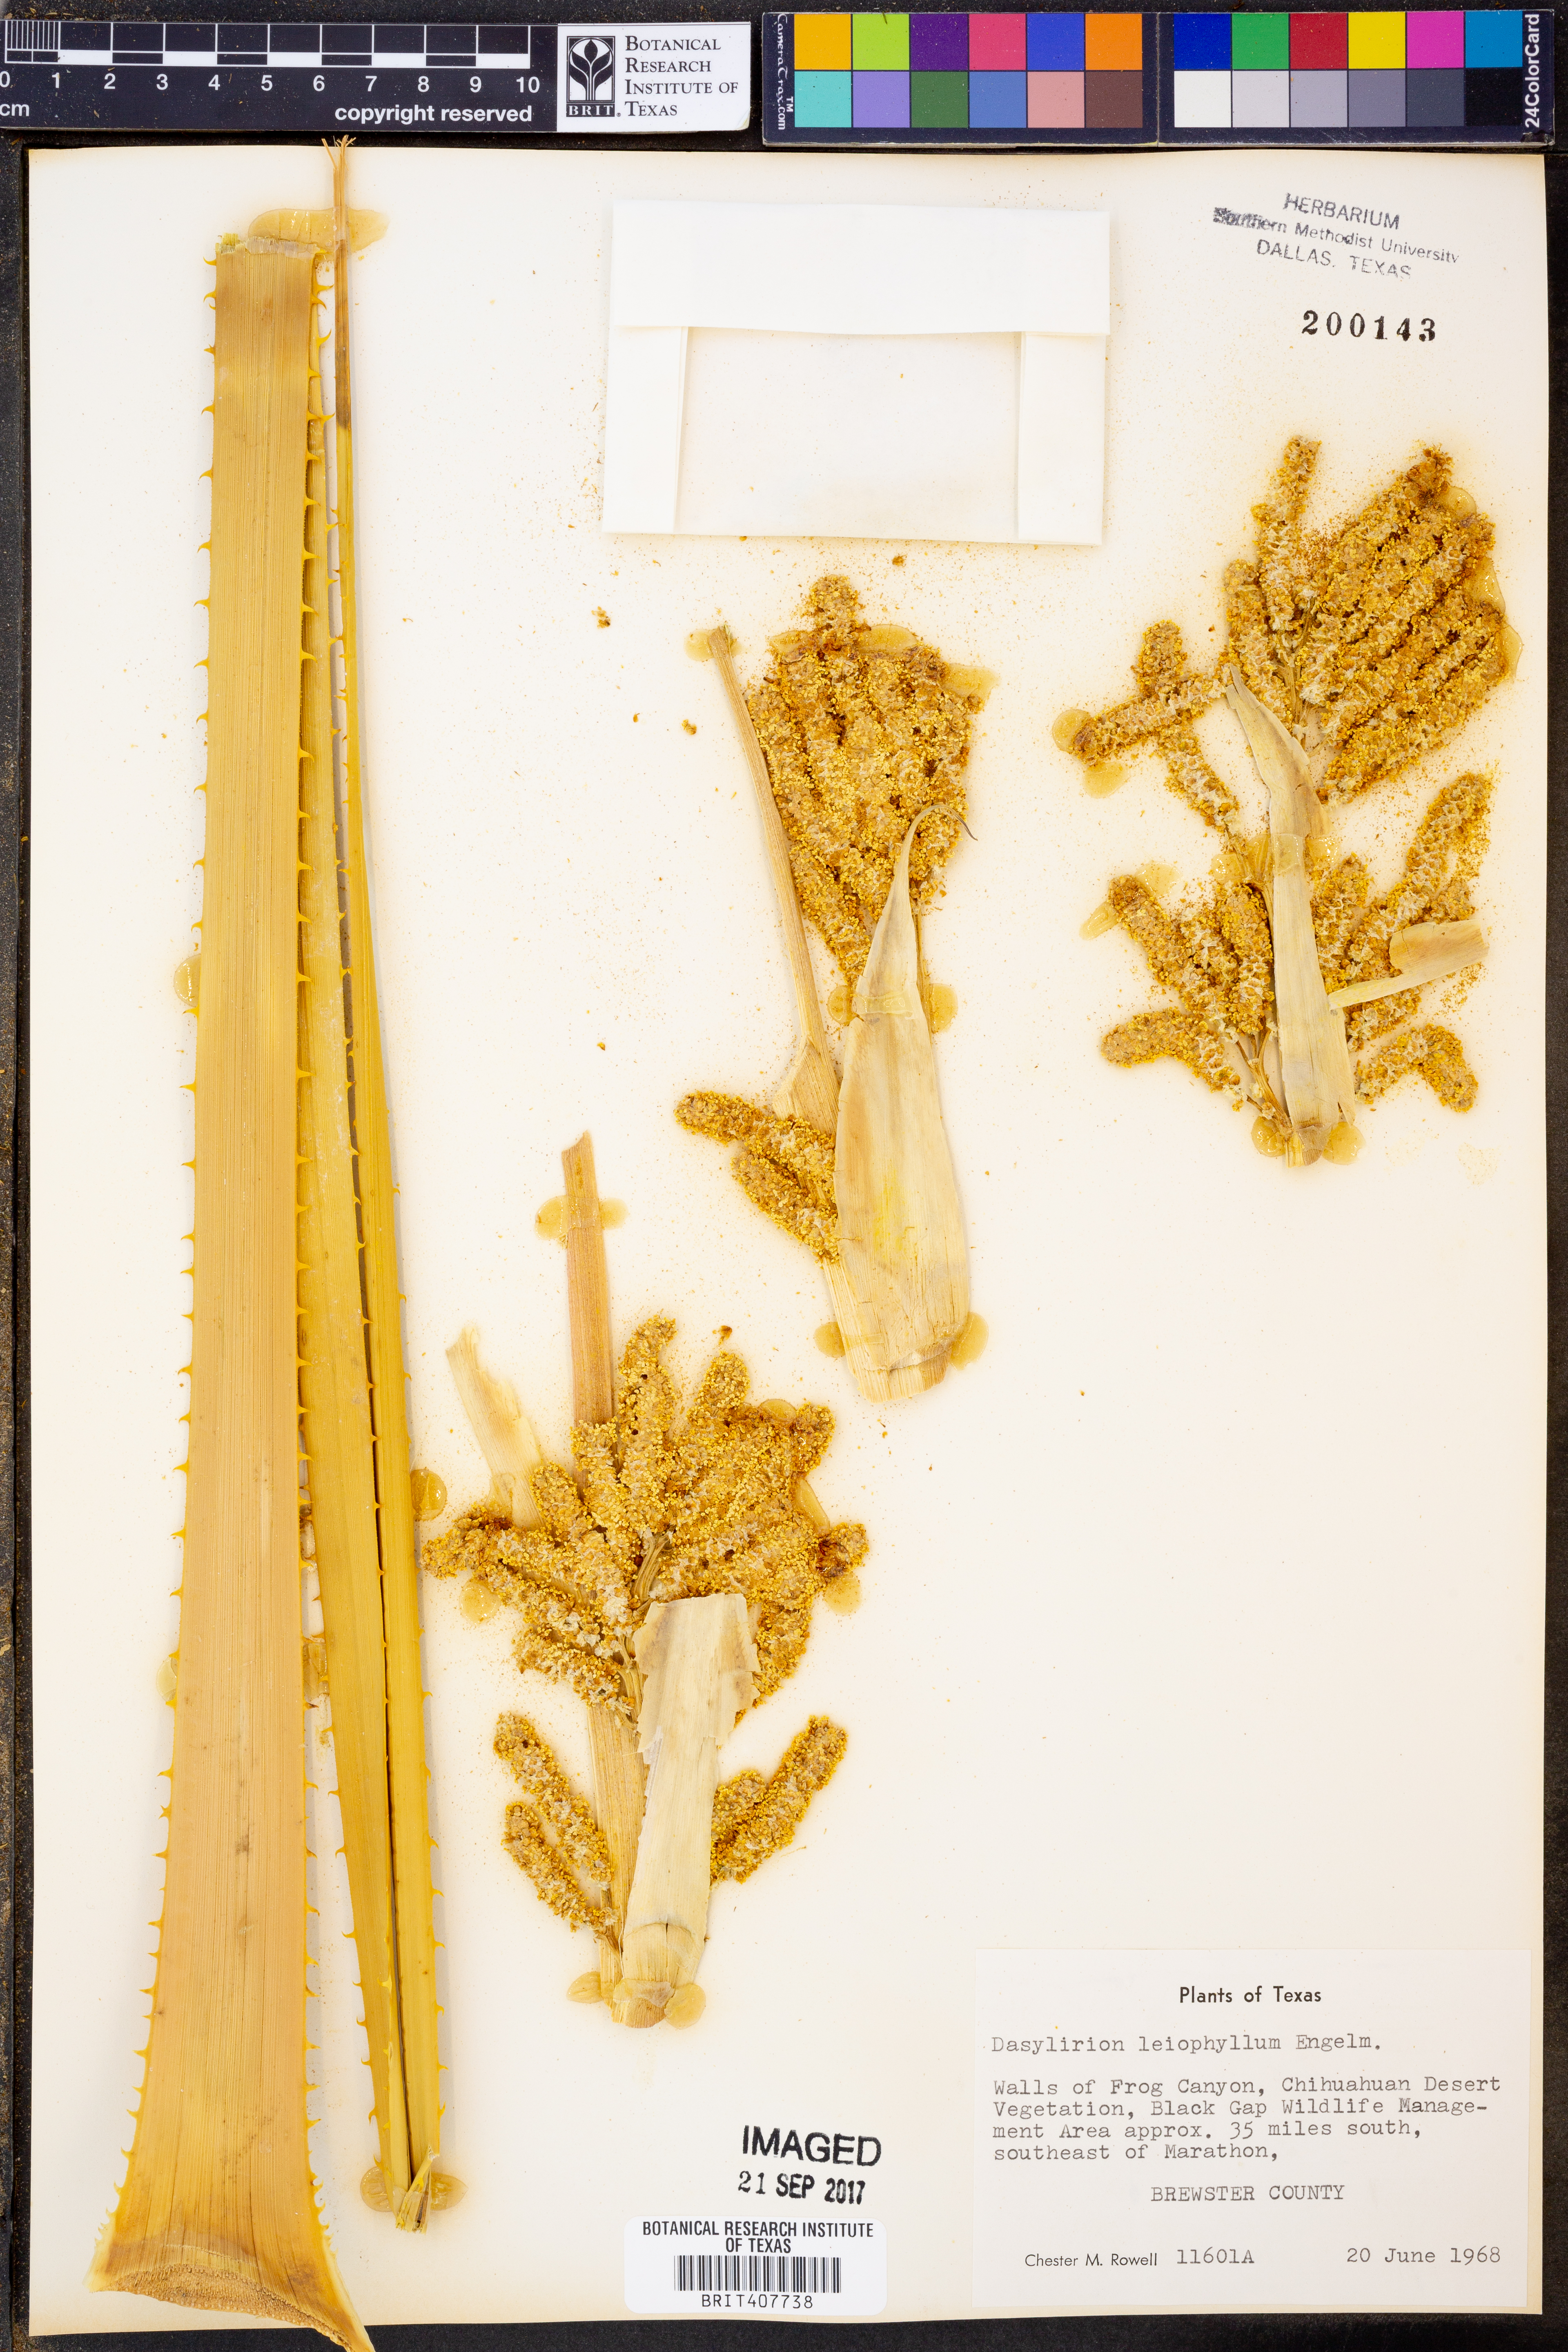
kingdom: Plantae
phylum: Tracheophyta
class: Liliopsida
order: Asparagales
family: Asparagaceae
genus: Dasylirion
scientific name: Dasylirion leiophyllum
